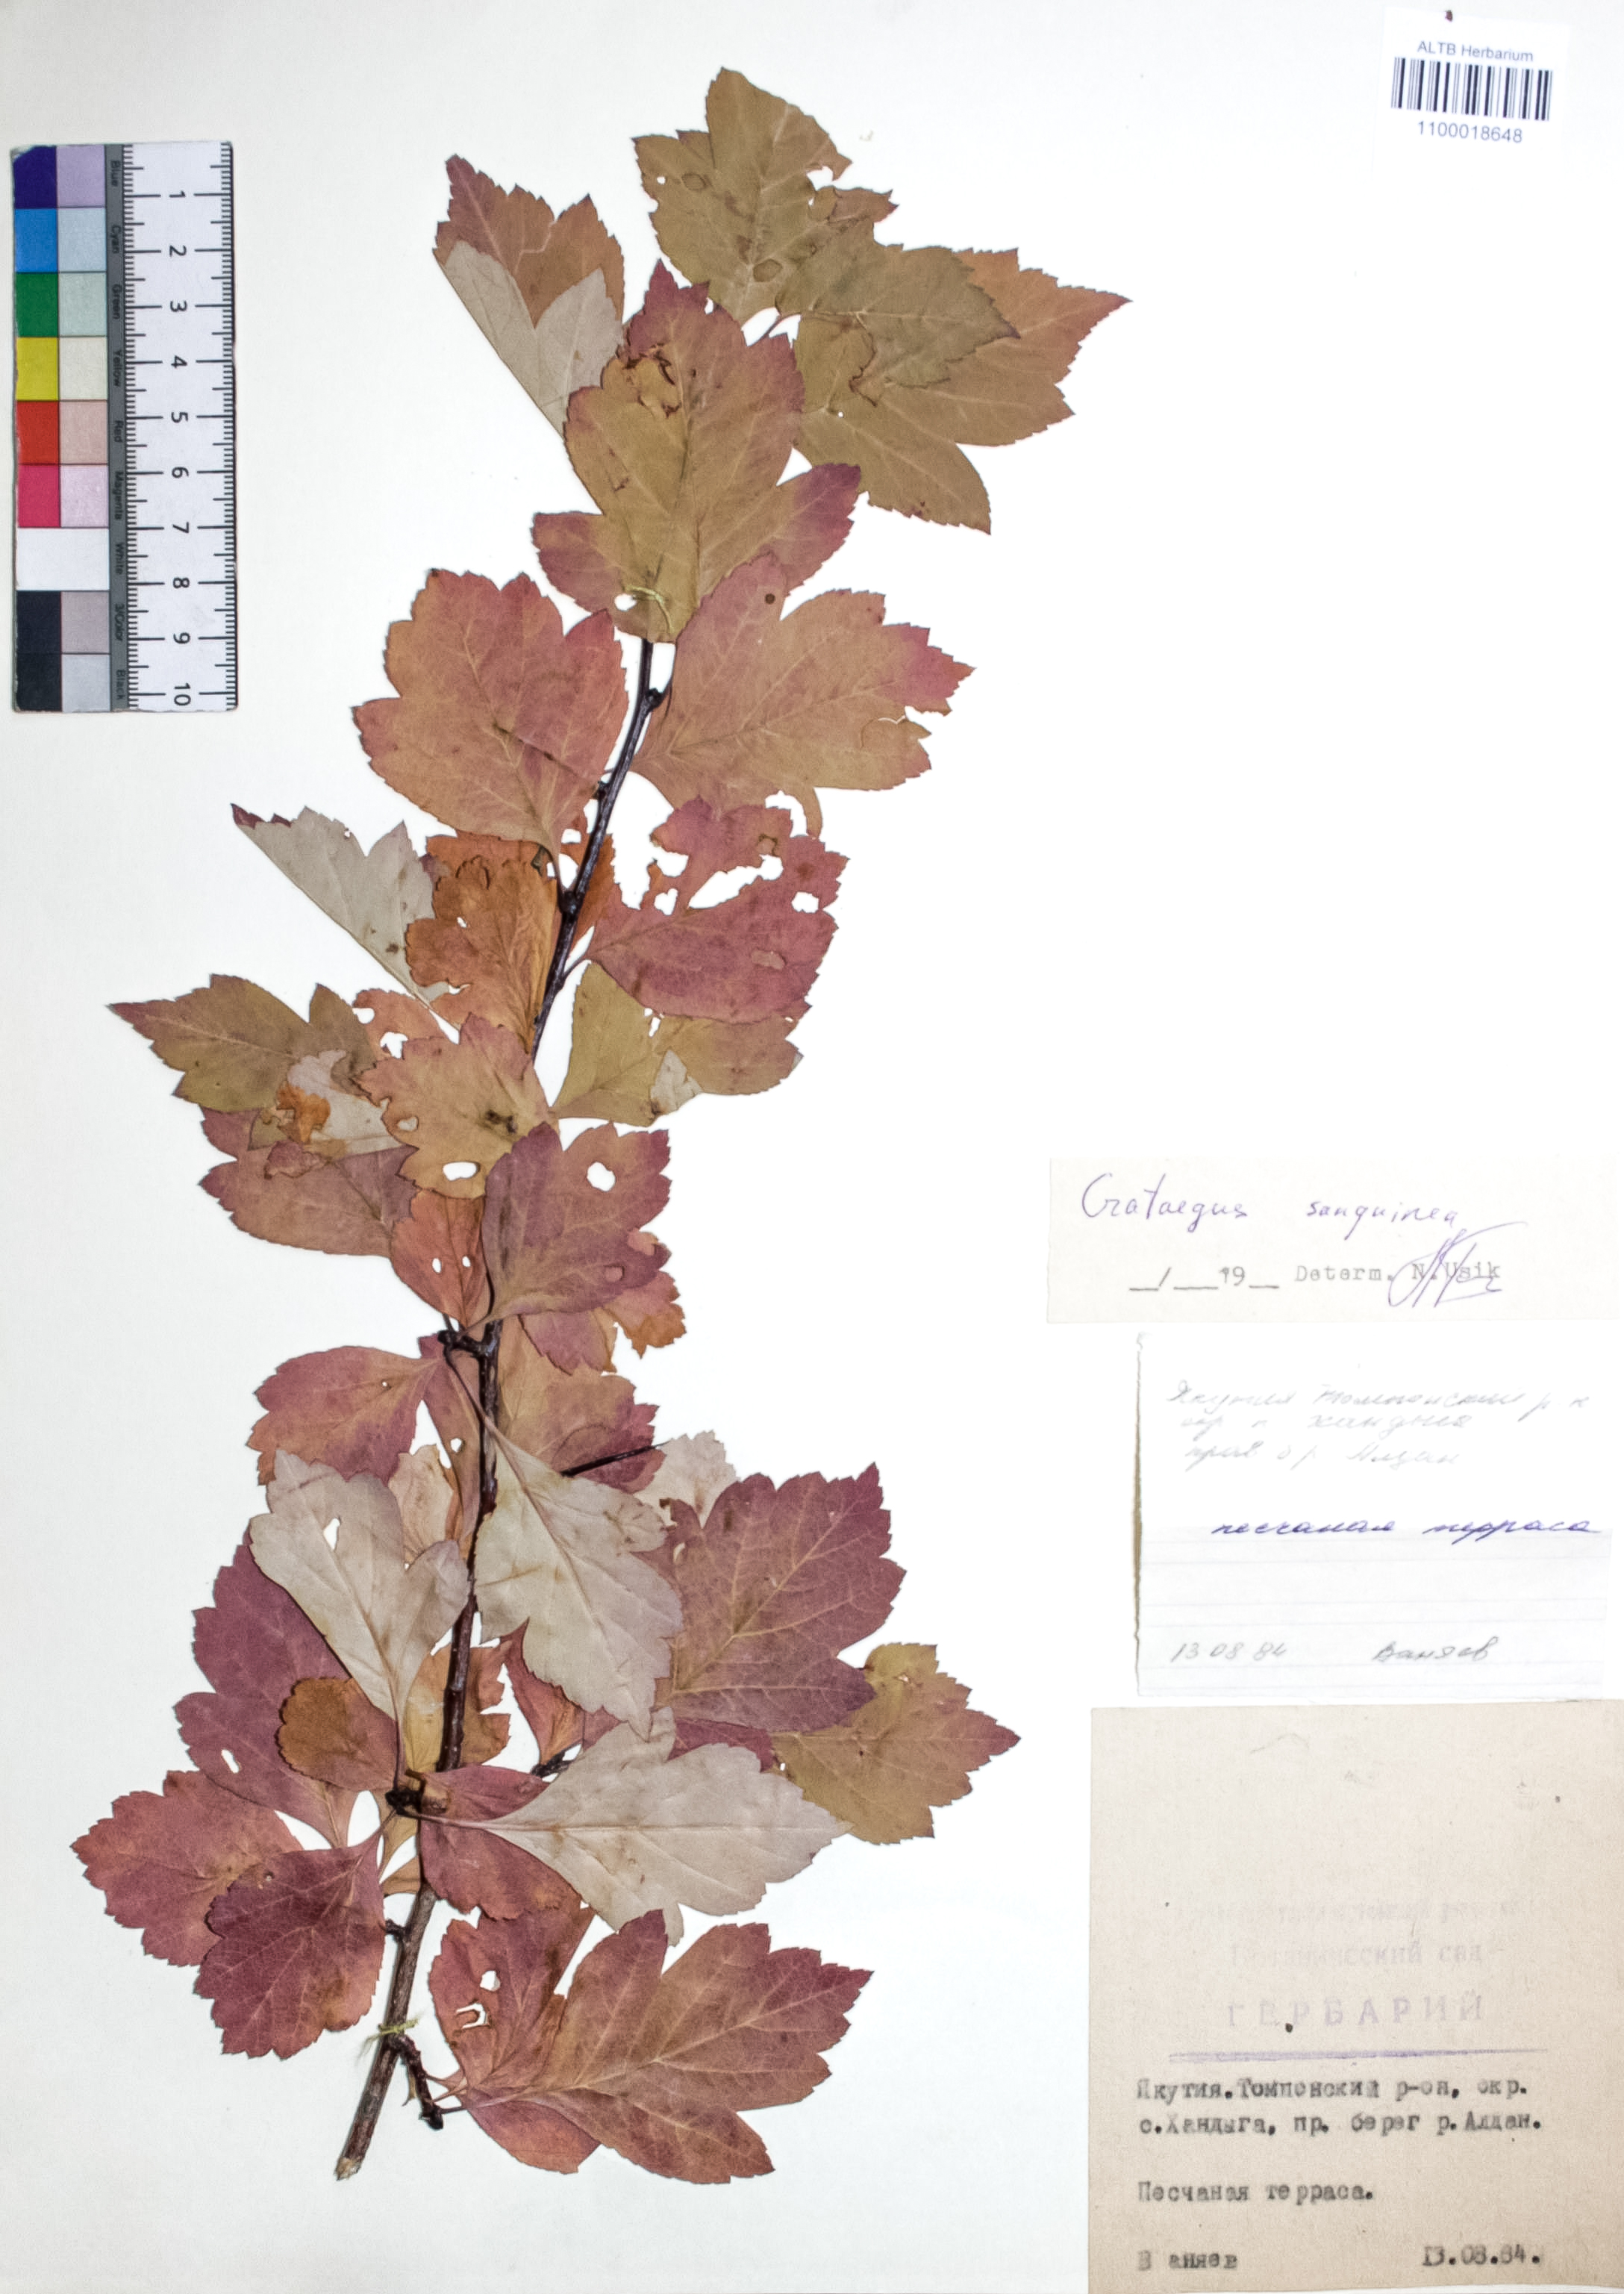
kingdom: Plantae
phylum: Tracheophyta
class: Magnoliopsida
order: Rosales
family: Rosaceae
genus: Crataegus
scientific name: Crataegus sanguinea
